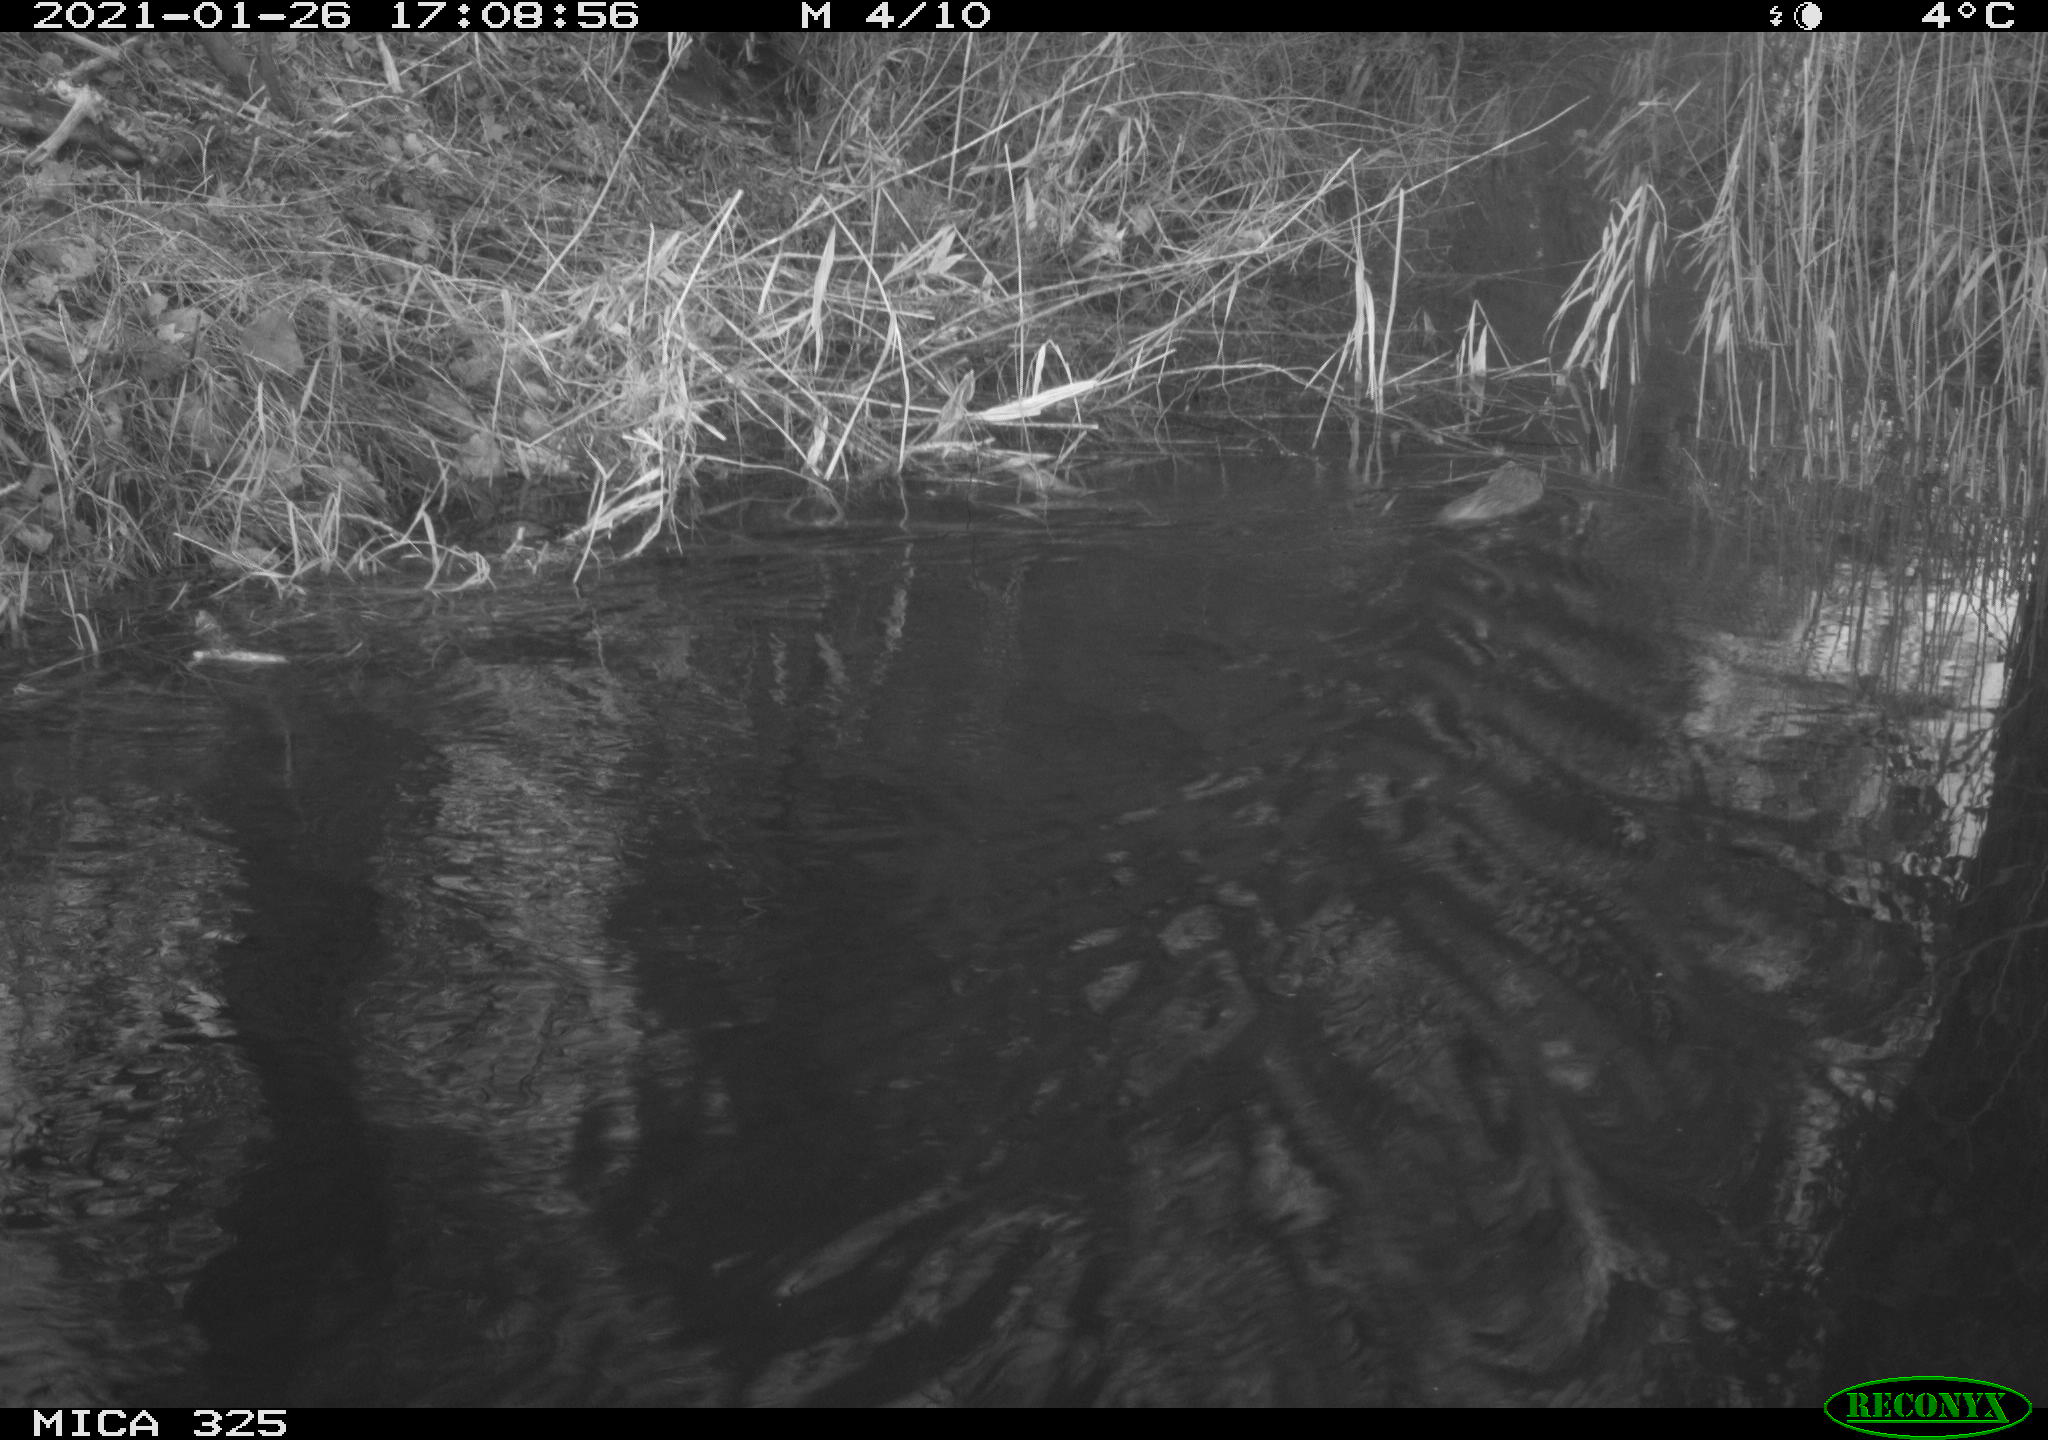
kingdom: Animalia
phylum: Chordata
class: Mammalia
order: Rodentia
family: Cricetidae
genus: Ondatra
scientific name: Ondatra zibethicus
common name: Muskrat
